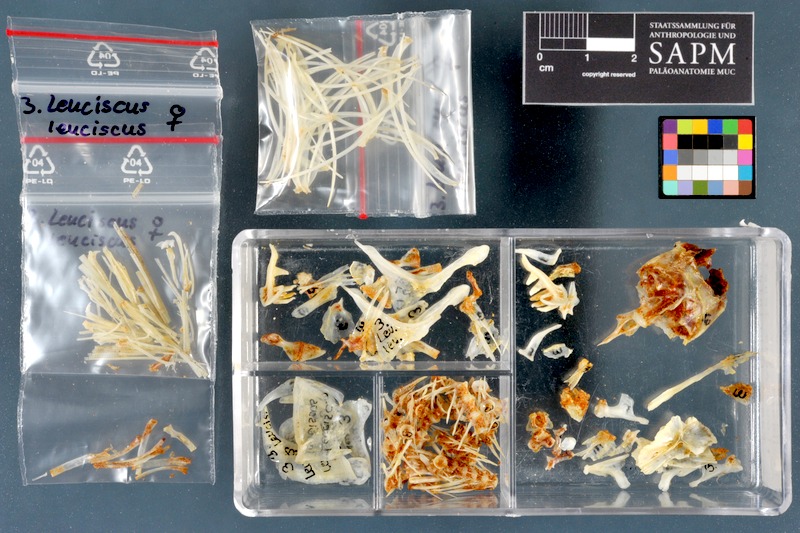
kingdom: Animalia
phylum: Chordata
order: Cypriniformes
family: Cyprinidae
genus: Leuciscus
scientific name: Leuciscus idus
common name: Ide
